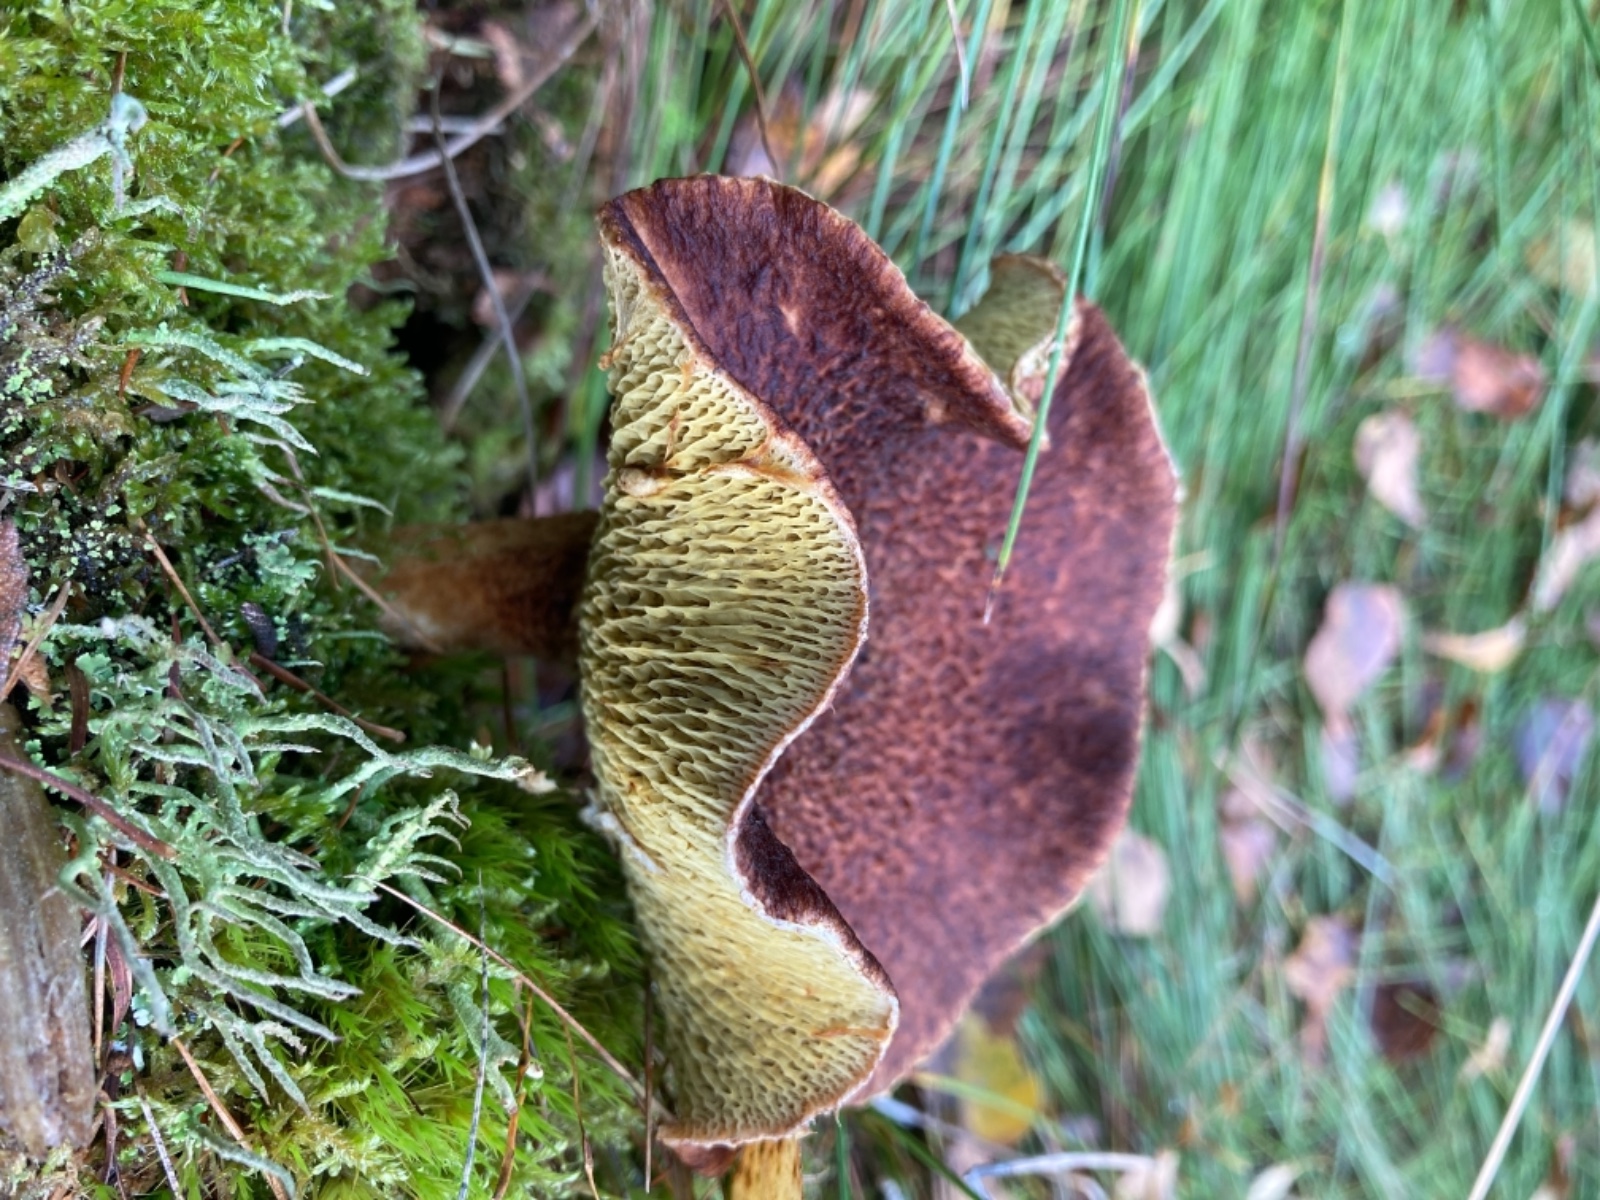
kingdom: Fungi
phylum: Basidiomycota
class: Agaricomycetes
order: Boletales
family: Suillaceae
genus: Suillus
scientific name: Suillus cavipes
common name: hulstokket slimrørhat
